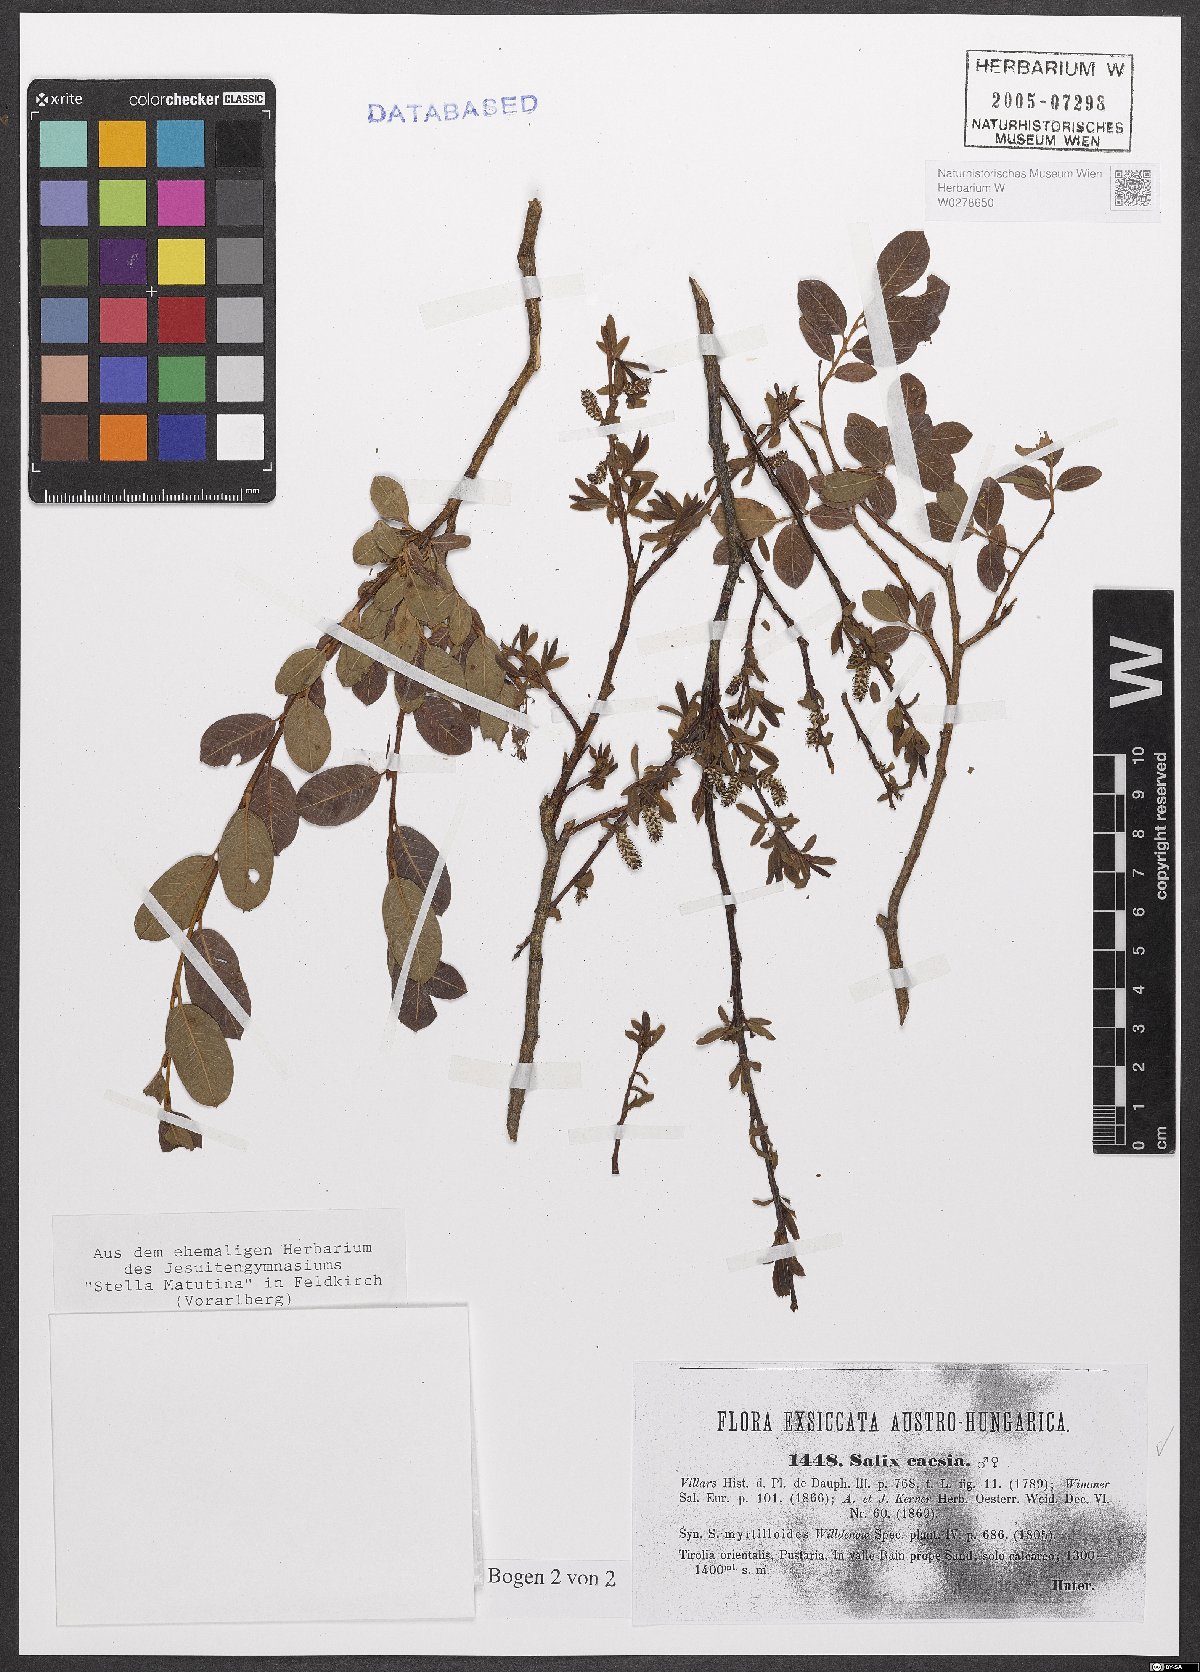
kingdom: Plantae
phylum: Tracheophyta
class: Magnoliopsida
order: Malpighiales
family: Salicaceae
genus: Salix
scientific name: Salix caesia
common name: Blue willow
